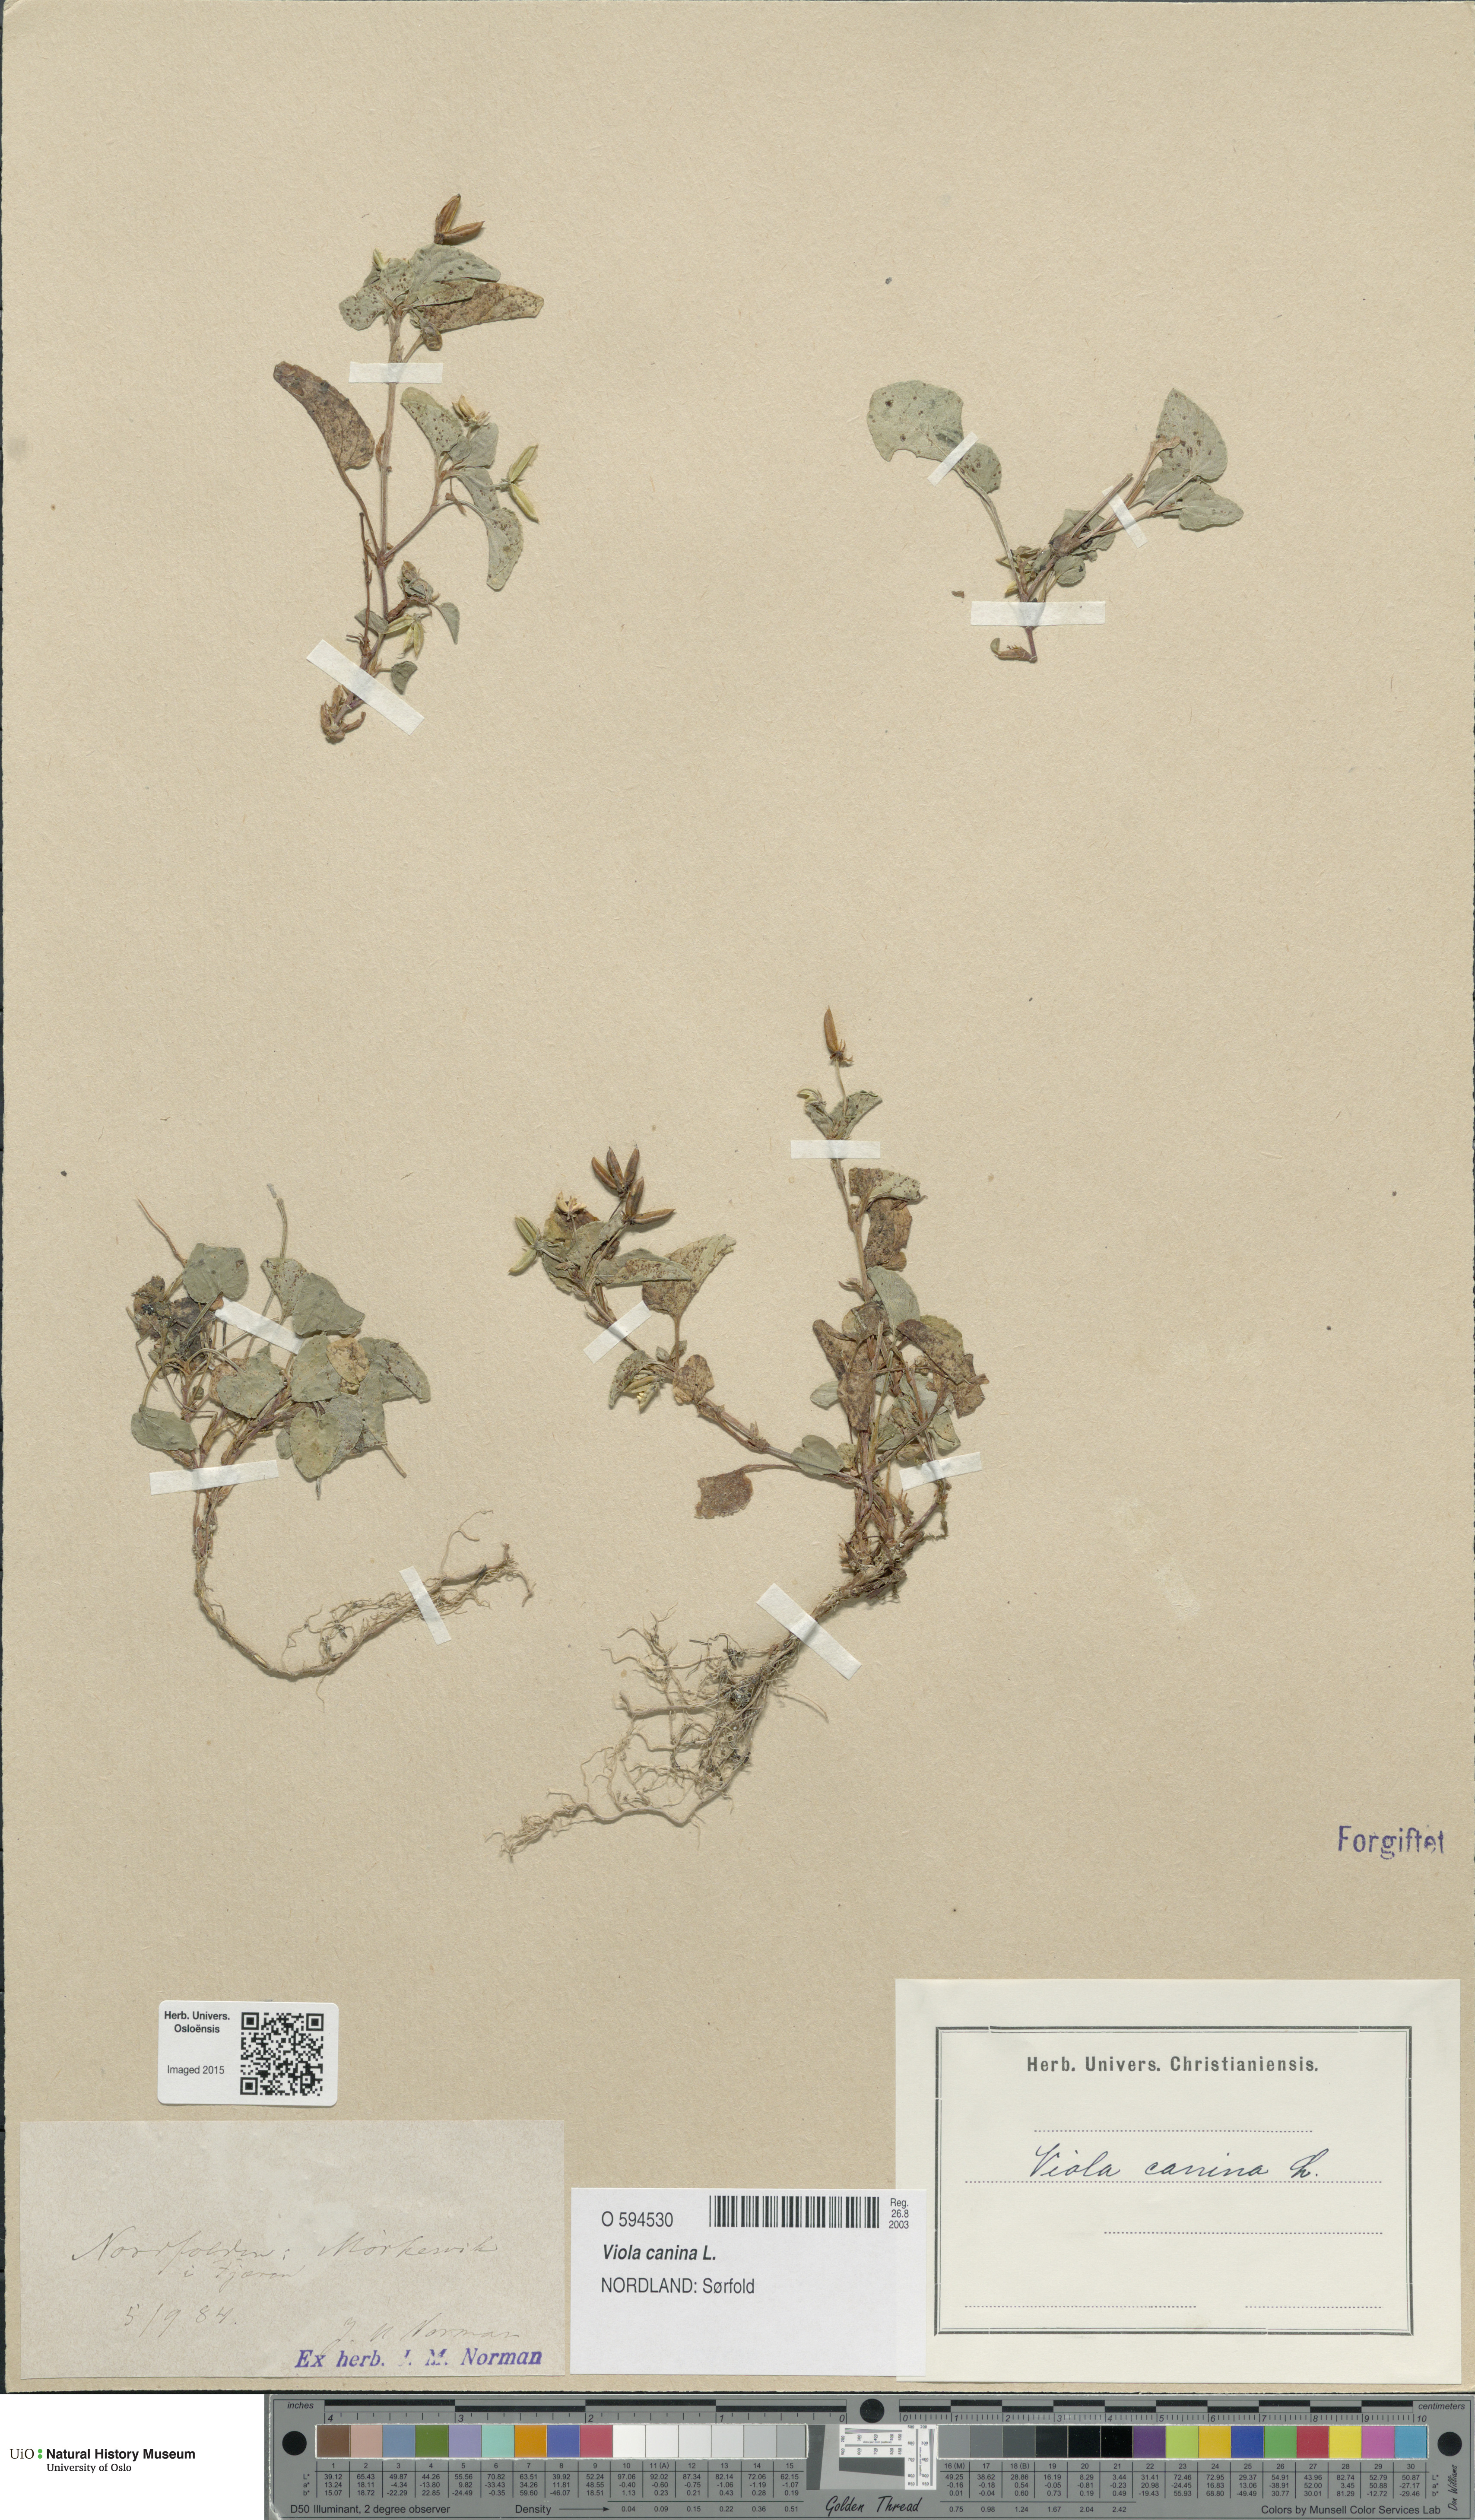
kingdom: Plantae
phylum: Tracheophyta
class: Magnoliopsida
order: Malpighiales
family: Violaceae
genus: Viola
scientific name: Viola canina
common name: Heath dog-violet
